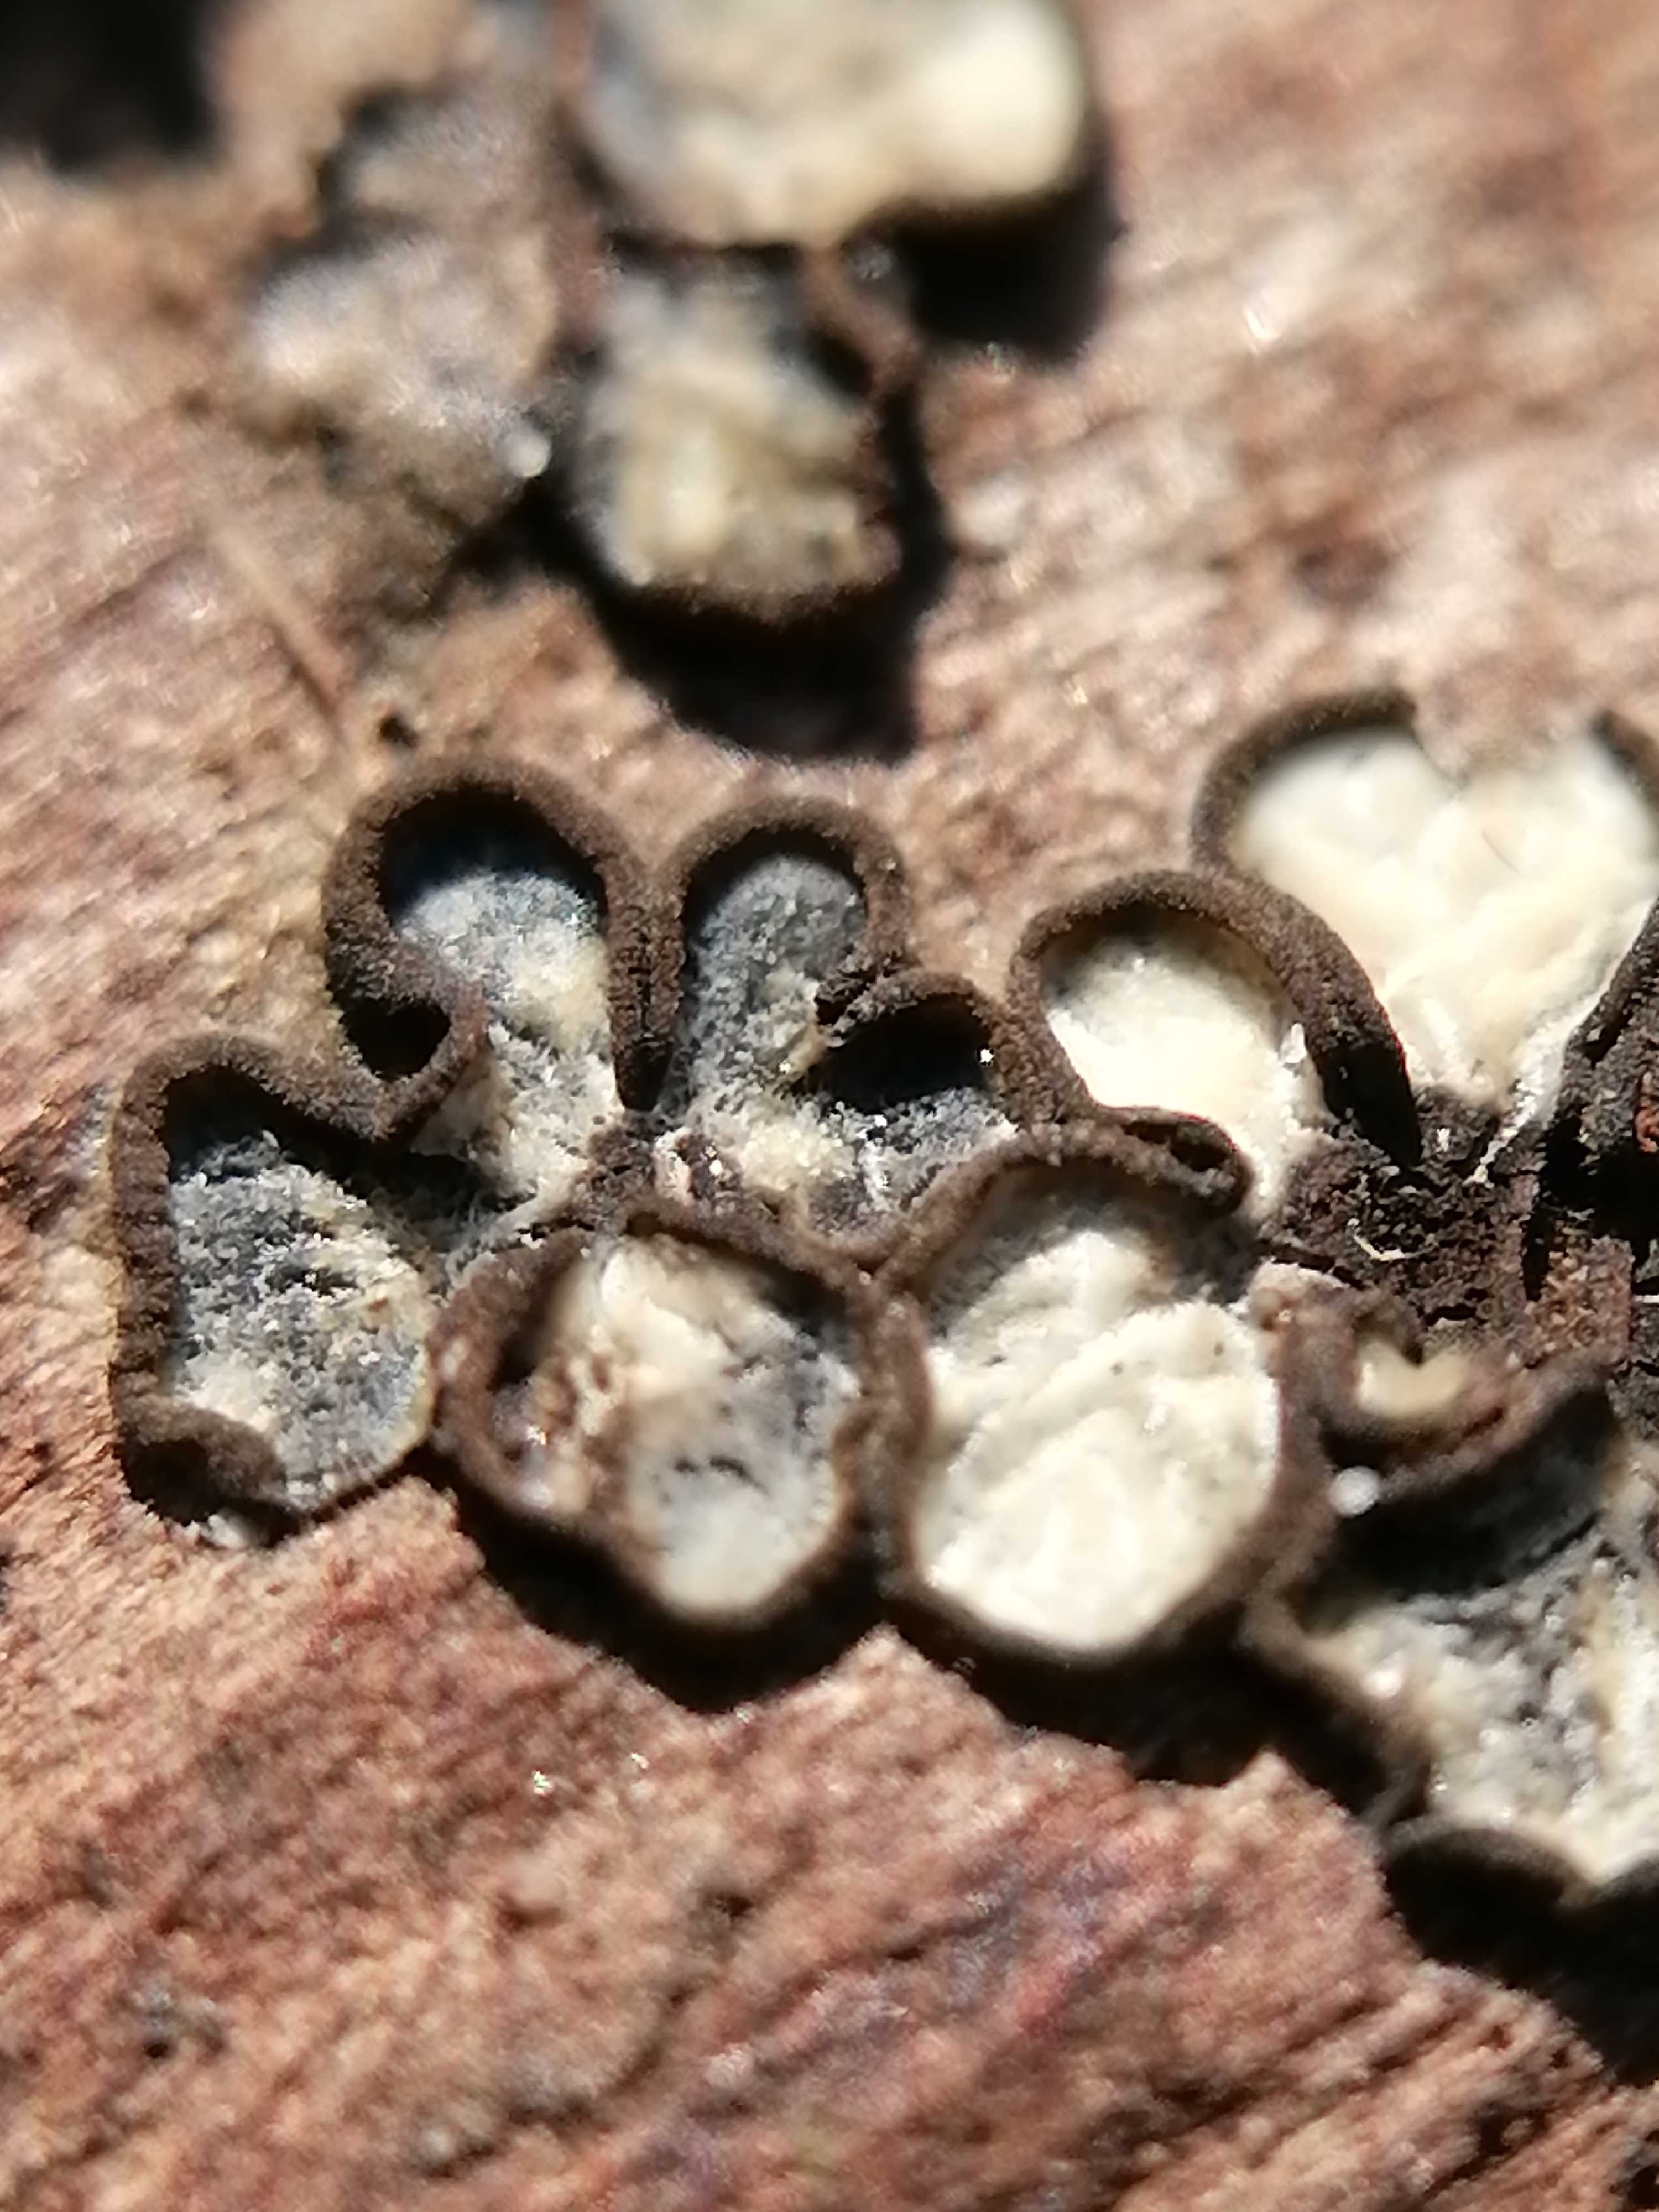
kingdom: Fungi
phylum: Ascomycota
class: Leotiomycetes
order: Helotiales
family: Mollisiaceae
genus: Mollisia
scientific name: Mollisia
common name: gråskive
